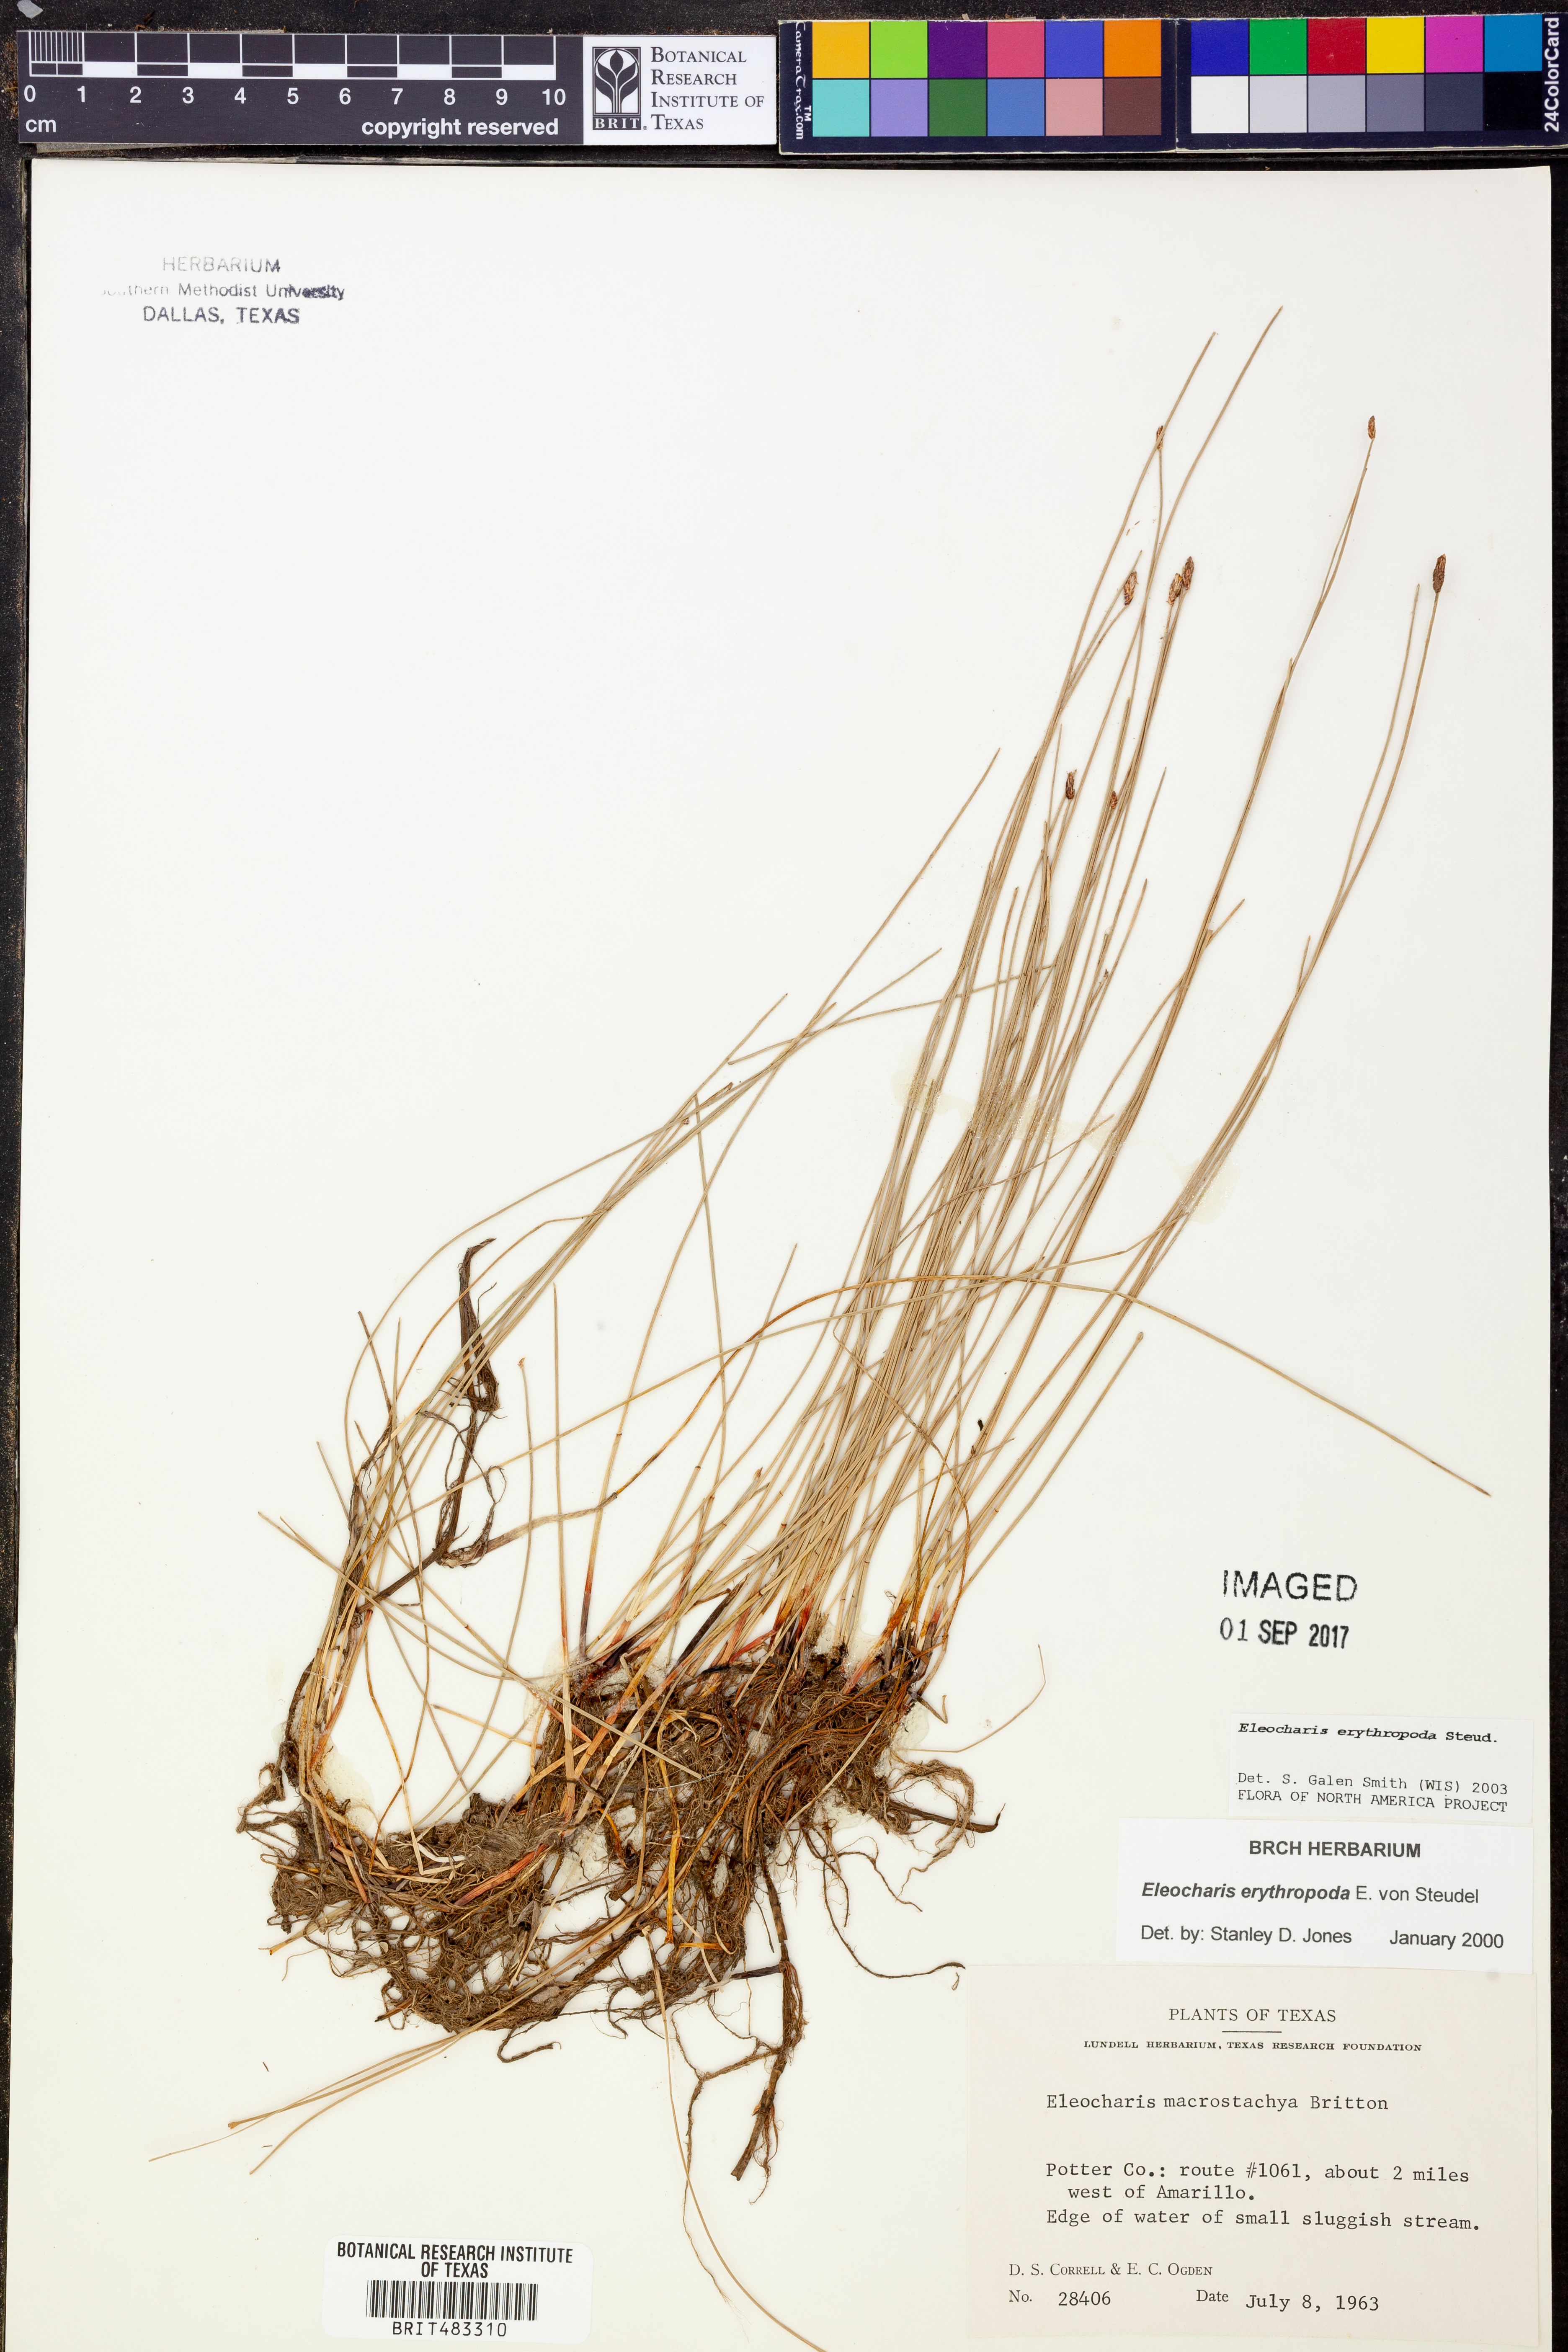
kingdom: Plantae
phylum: Tracheophyta
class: Liliopsida
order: Poales
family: Cyperaceae
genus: Eleocharis
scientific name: Eleocharis erythropoda
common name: Bald spikerush
